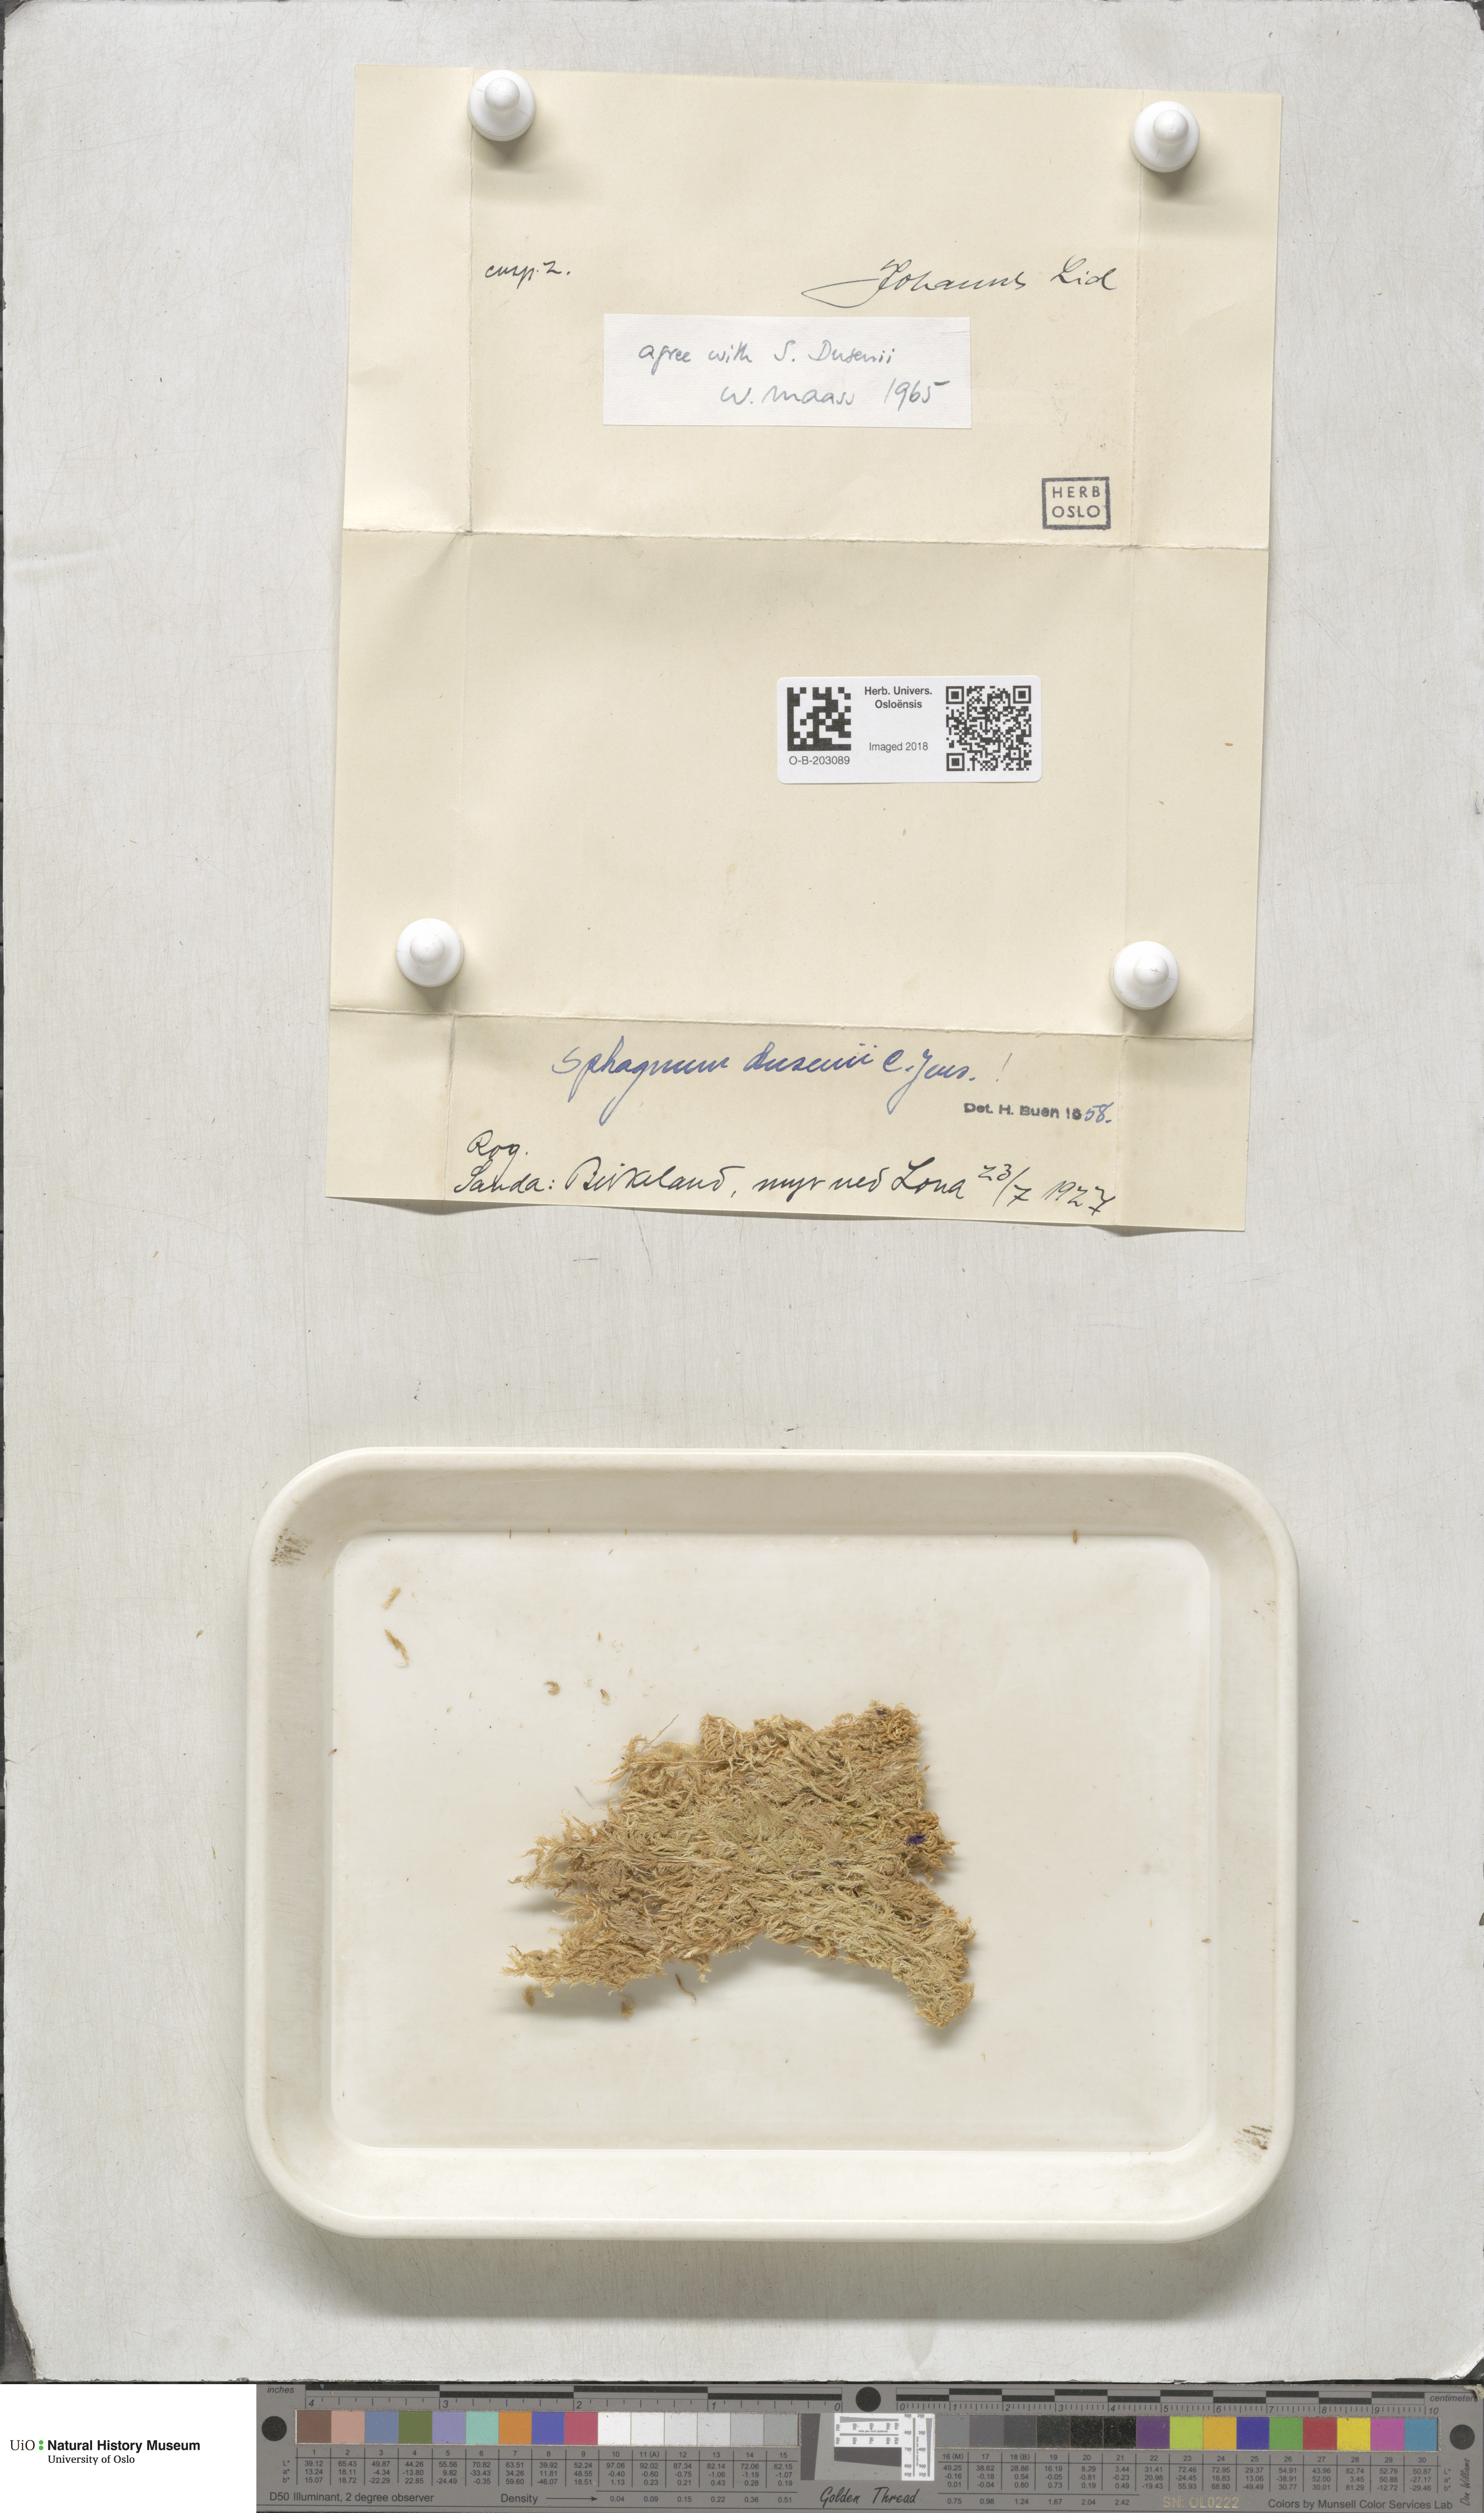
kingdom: Plantae
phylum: Bryophyta
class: Sphagnopsida
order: Sphagnales
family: Sphagnaceae
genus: Sphagnum
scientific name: Sphagnum majus
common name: Olive bog-moss
